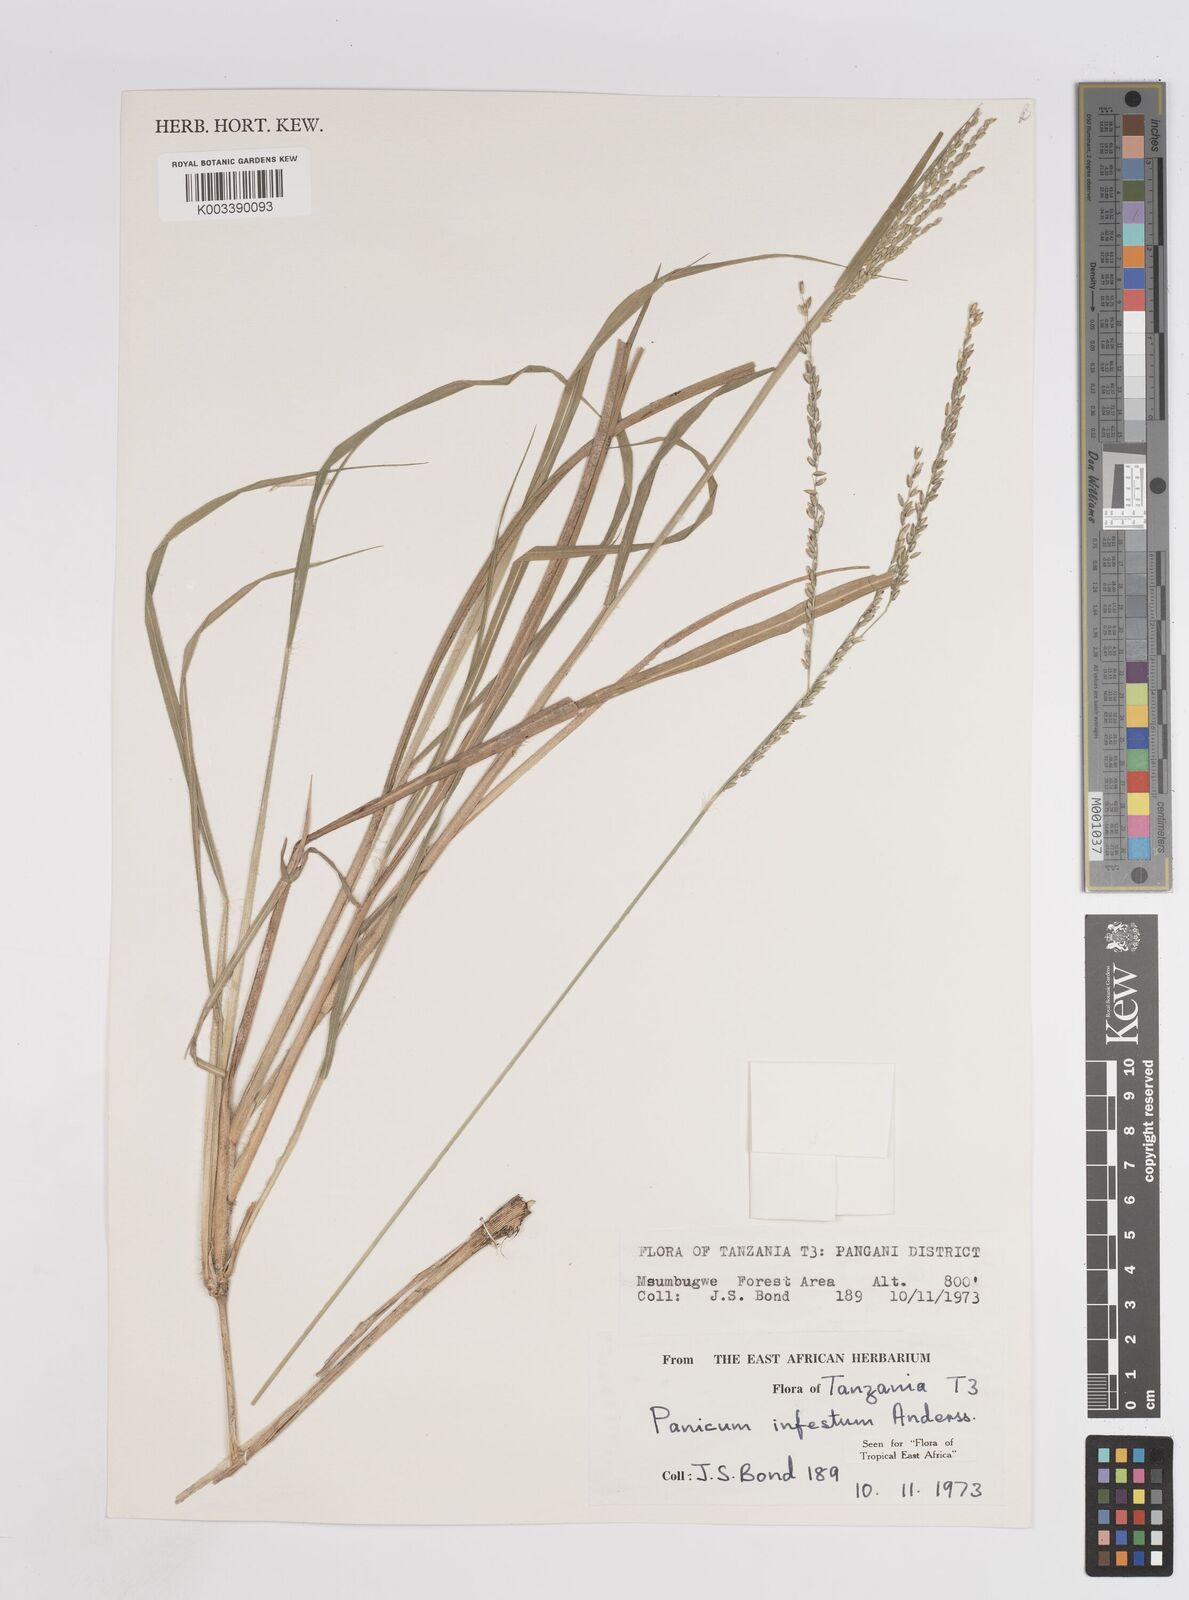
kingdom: Plantae
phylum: Tracheophyta
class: Liliopsida
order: Poales
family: Poaceae
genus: Megathyrsus
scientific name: Megathyrsus infestus
